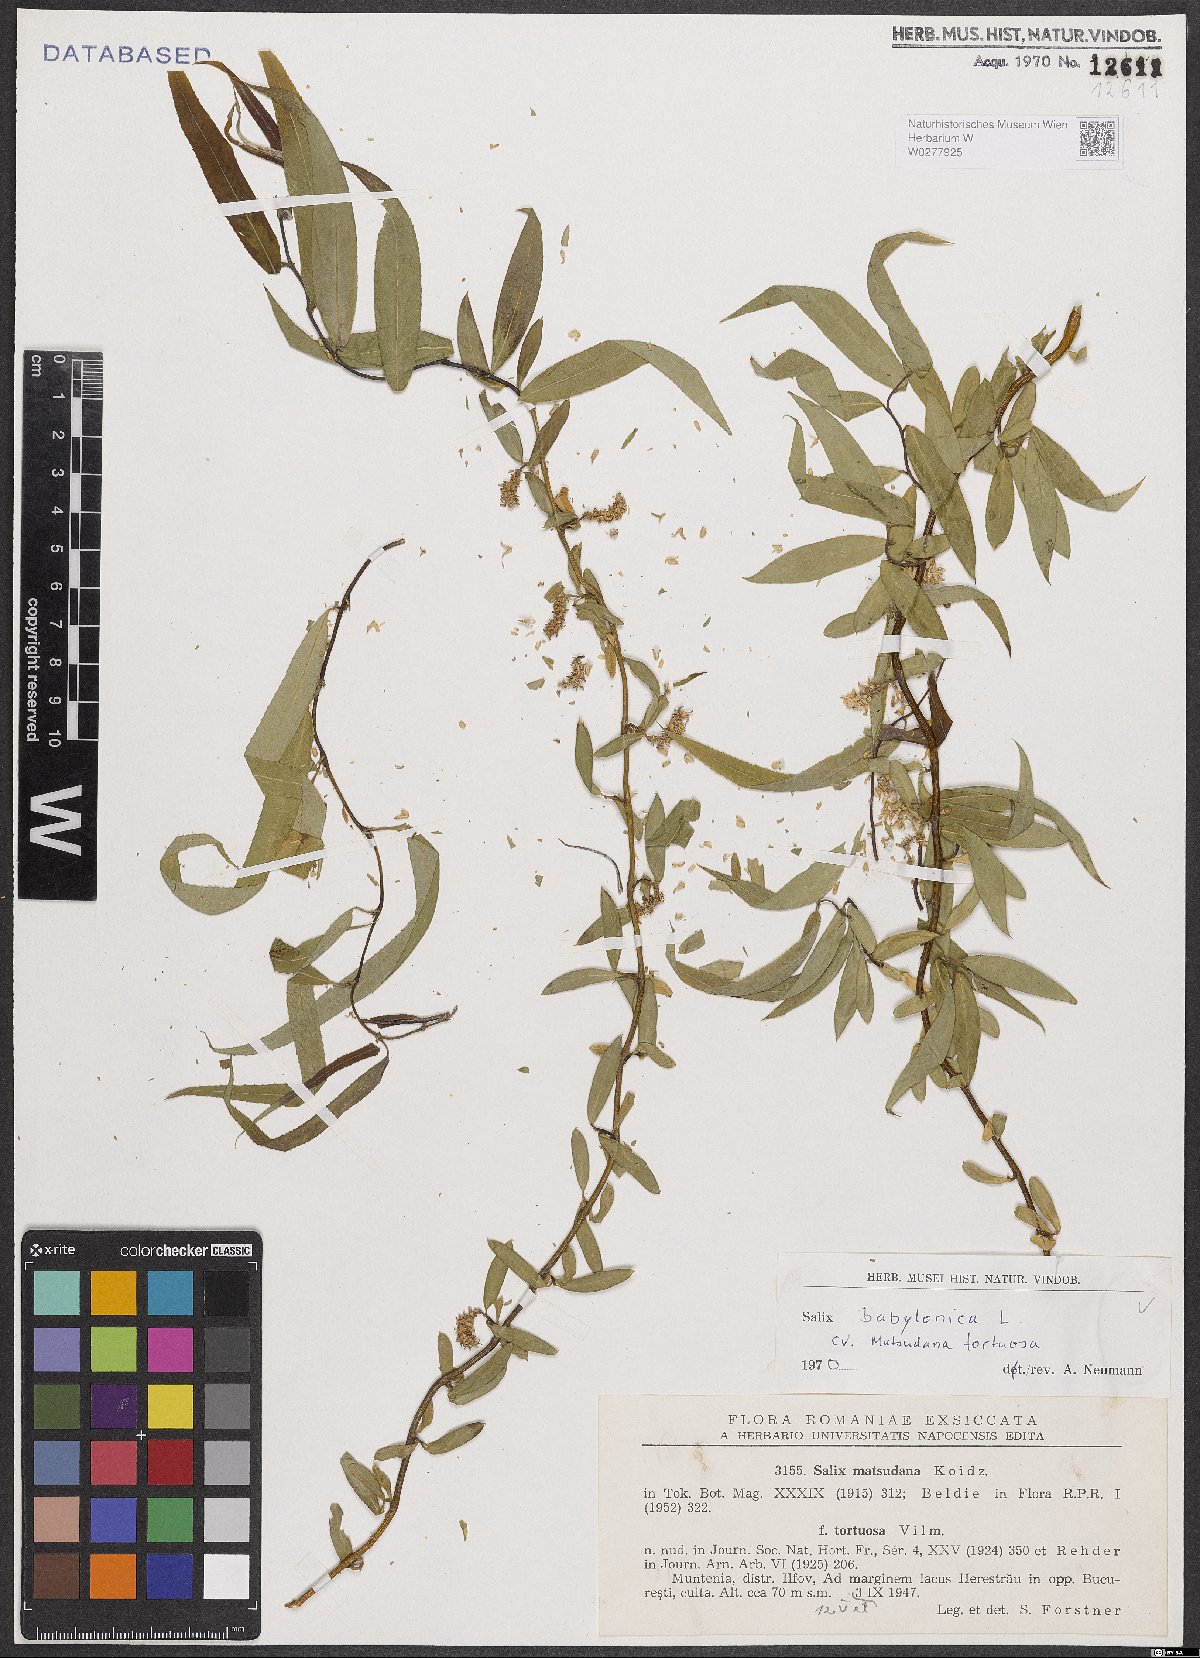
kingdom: Plantae
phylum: Tracheophyta
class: Magnoliopsida
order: Malpighiales
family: Salicaceae
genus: Salix
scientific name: Salix babylonica
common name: Weeping willow
